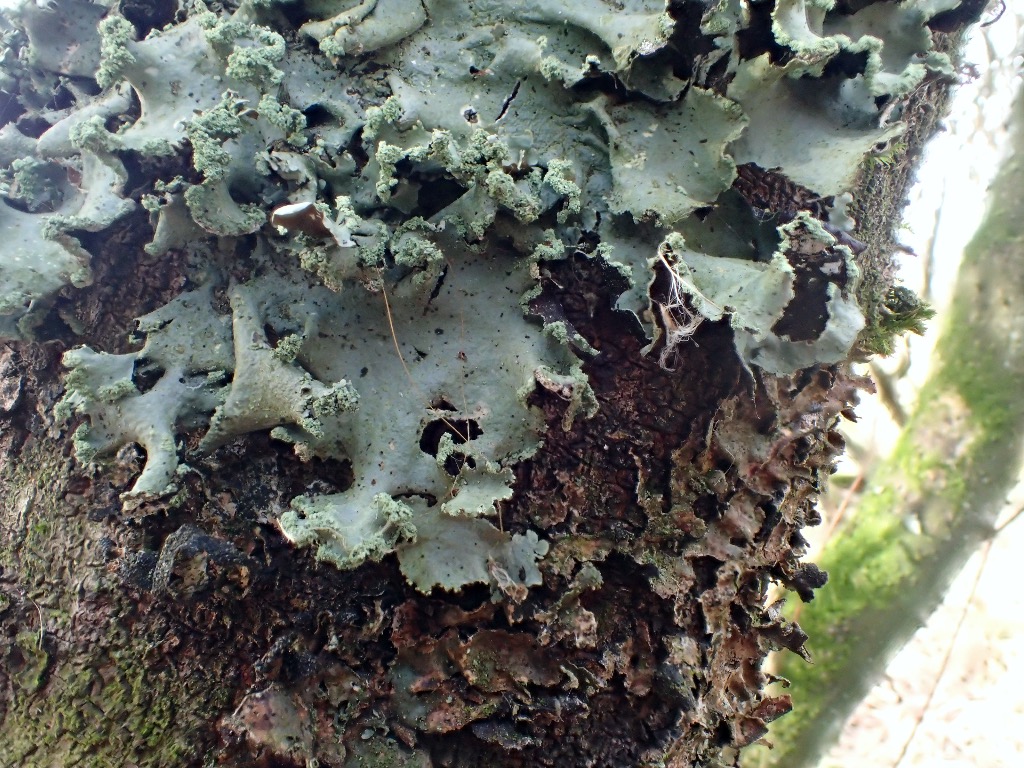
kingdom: Fungi
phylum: Ascomycota
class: Lecanoromycetes
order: Lecanorales
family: Parmeliaceae
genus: Hypotrachyna
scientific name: Hypotrachyna revoluta
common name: bleggrå skållav
